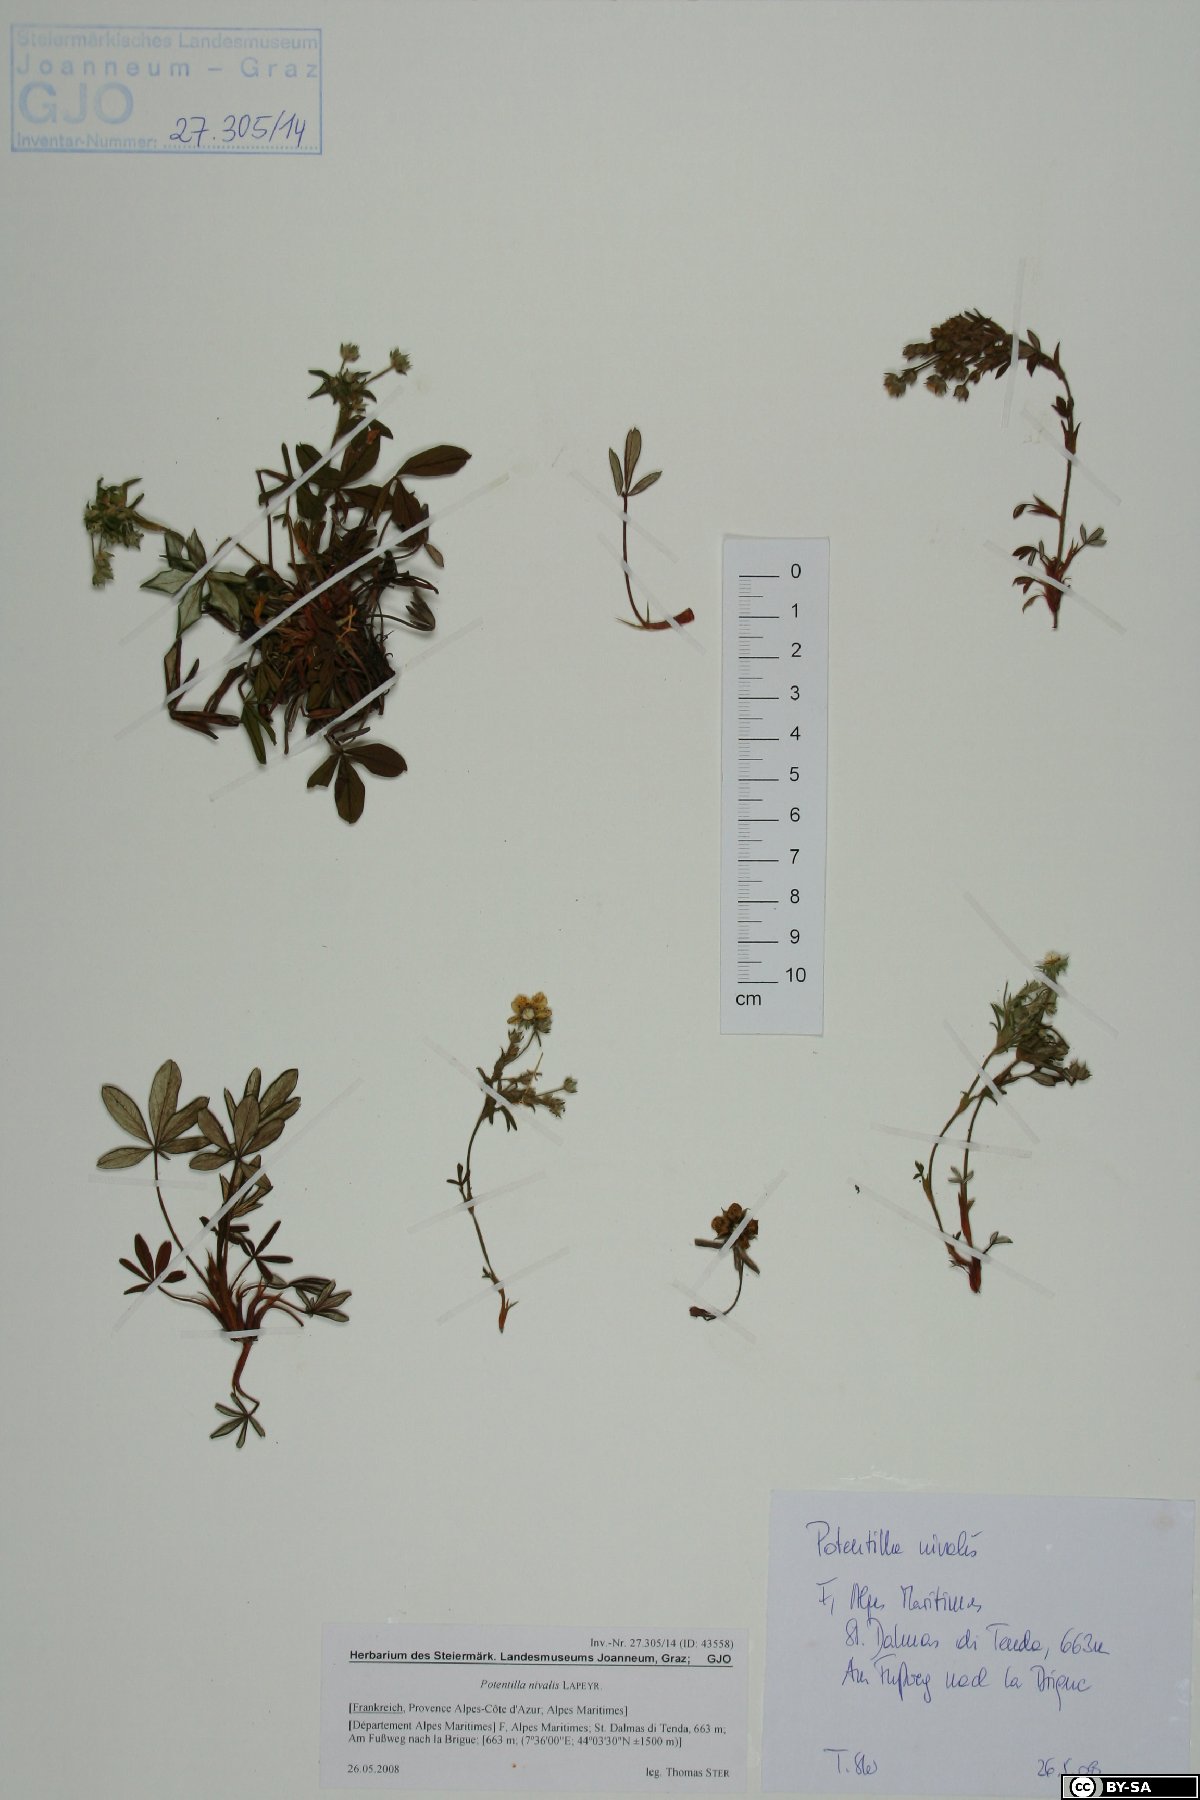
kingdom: Plantae
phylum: Tracheophyta
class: Magnoliopsida
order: Rosales
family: Rosaceae
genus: Potentilla
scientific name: Potentilla nivalis
